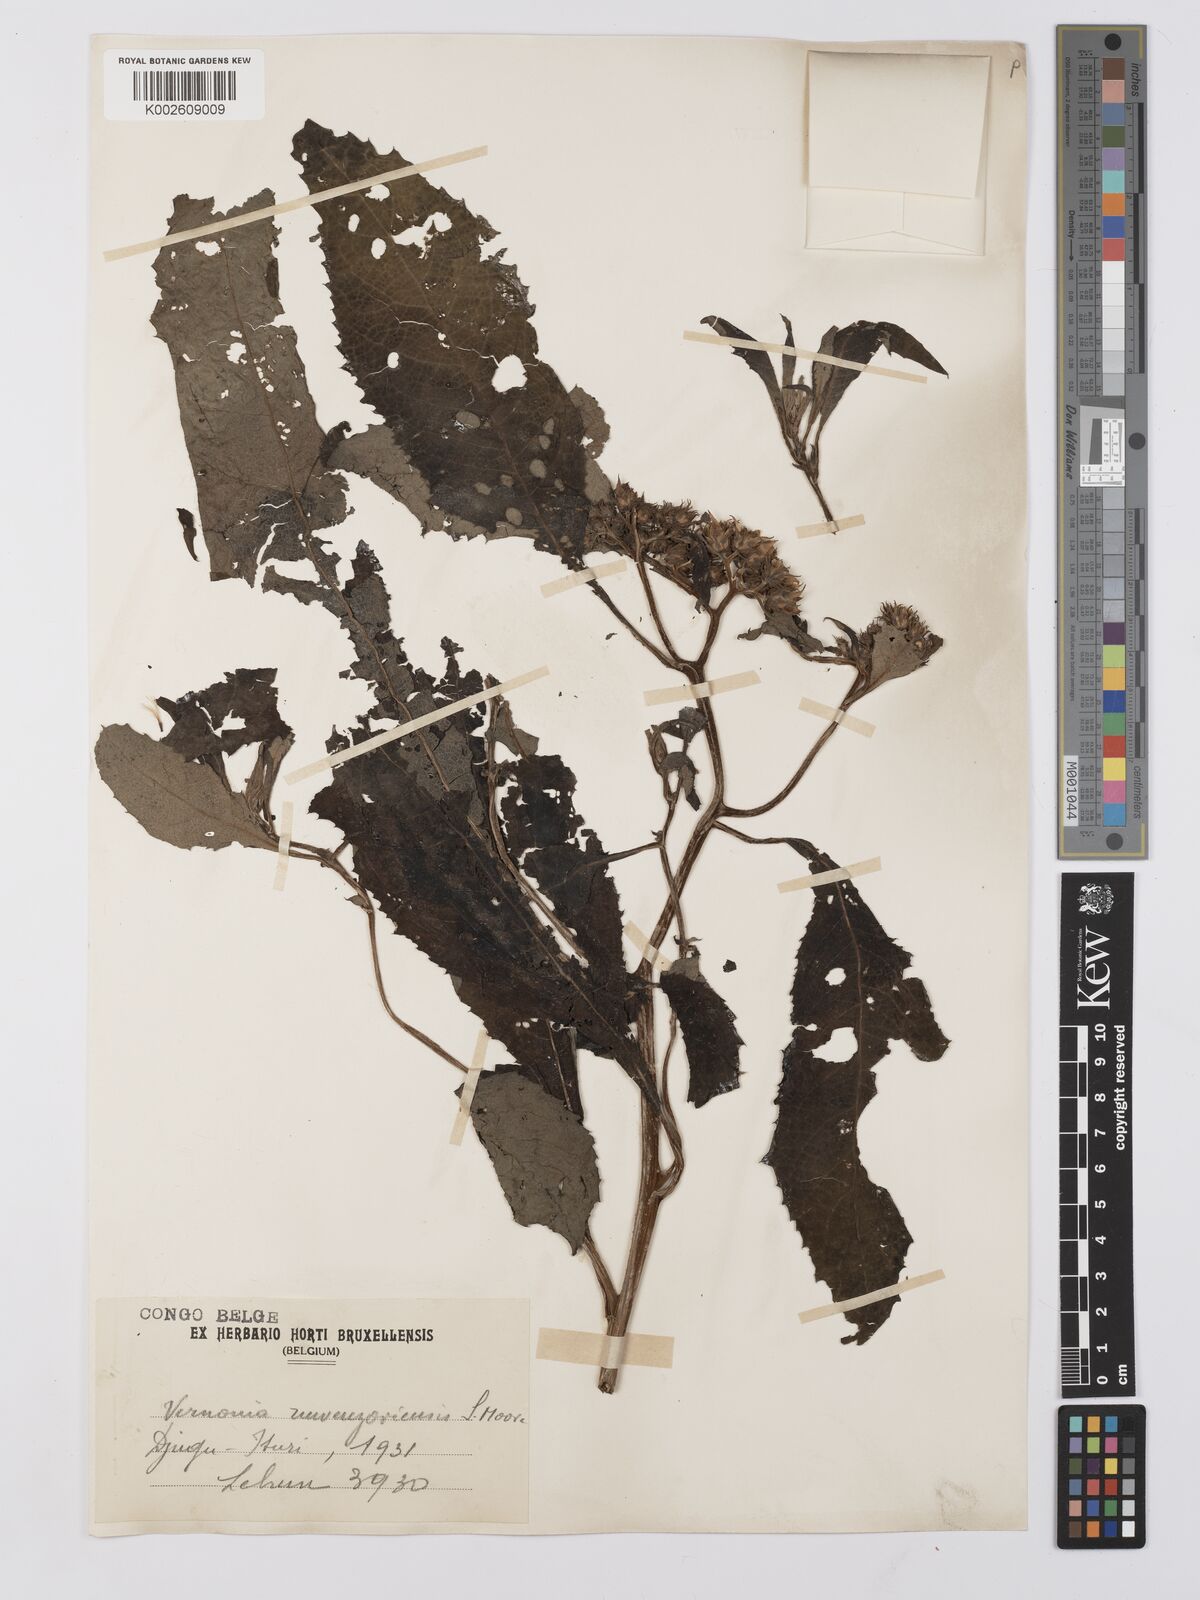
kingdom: Plantae
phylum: Tracheophyta
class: Magnoliopsida
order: Asterales
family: Asteraceae
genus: Vernonia
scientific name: Vernonia ruwenzoriensis
